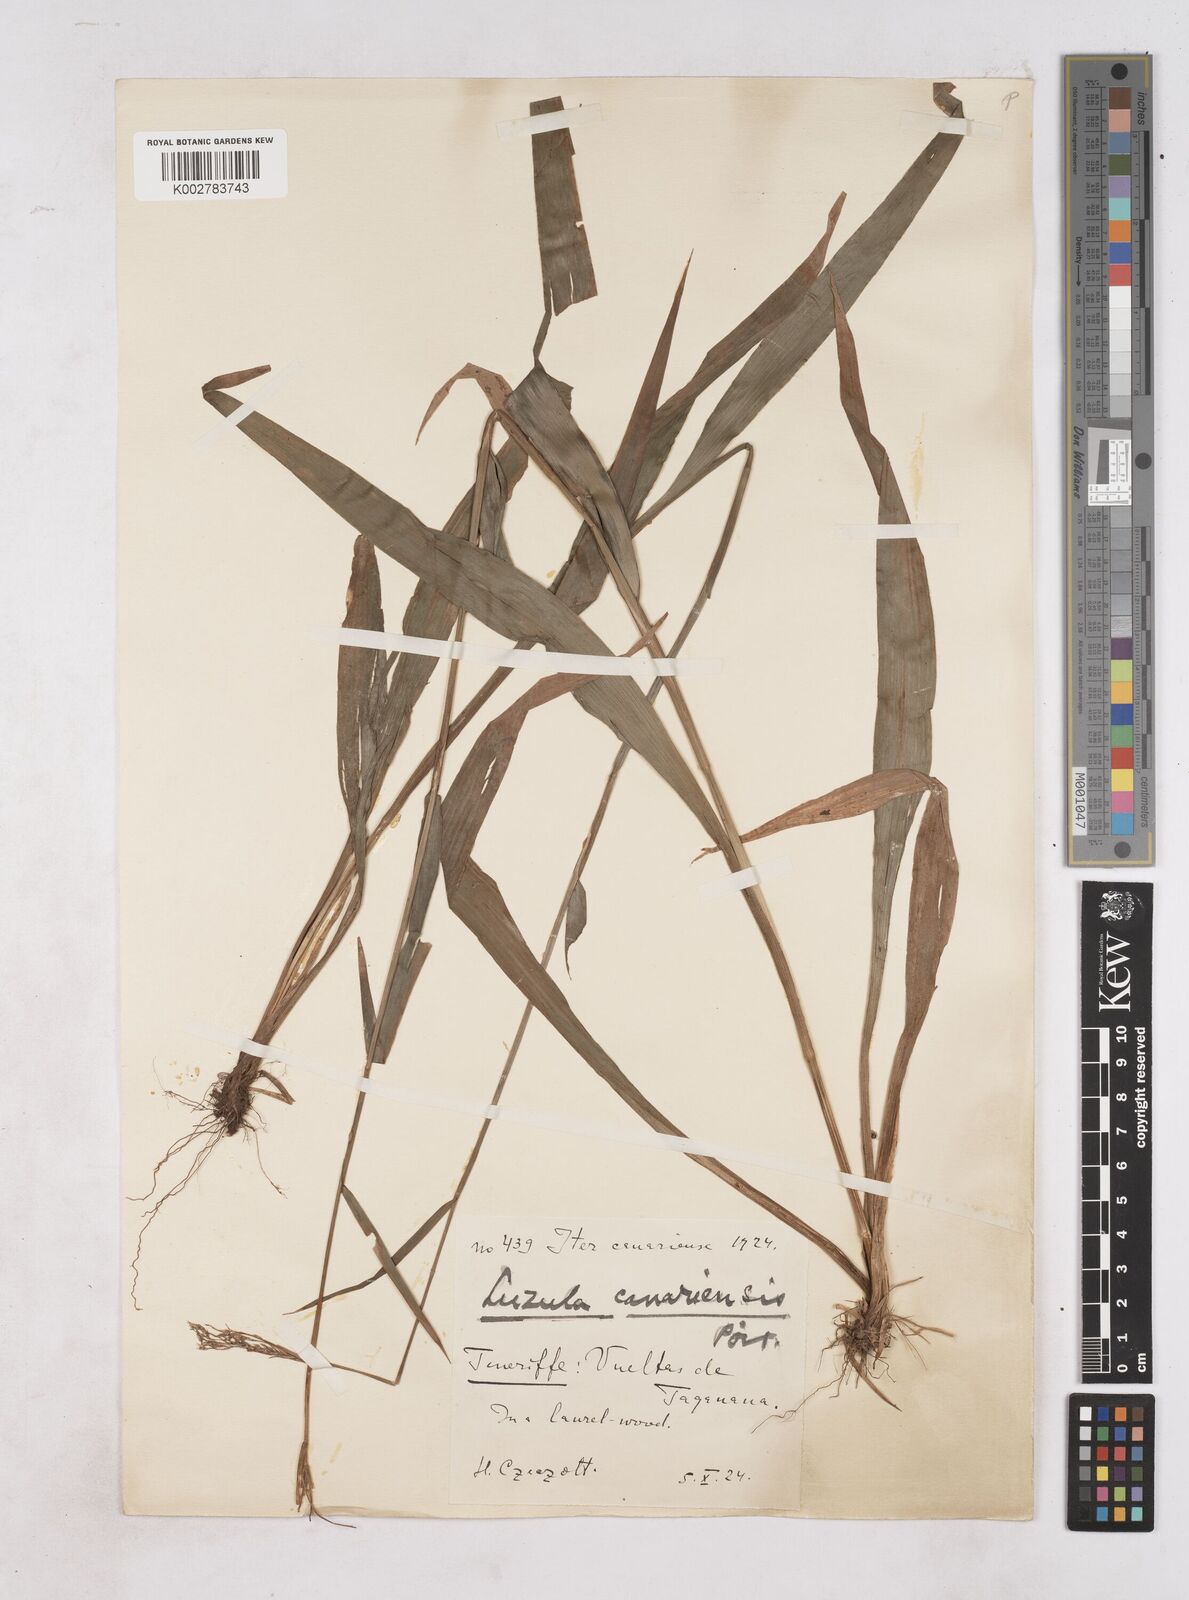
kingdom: Plantae
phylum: Tracheophyta
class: Liliopsida
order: Poales
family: Juncaceae
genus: Luzula
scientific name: Luzula canariensis
